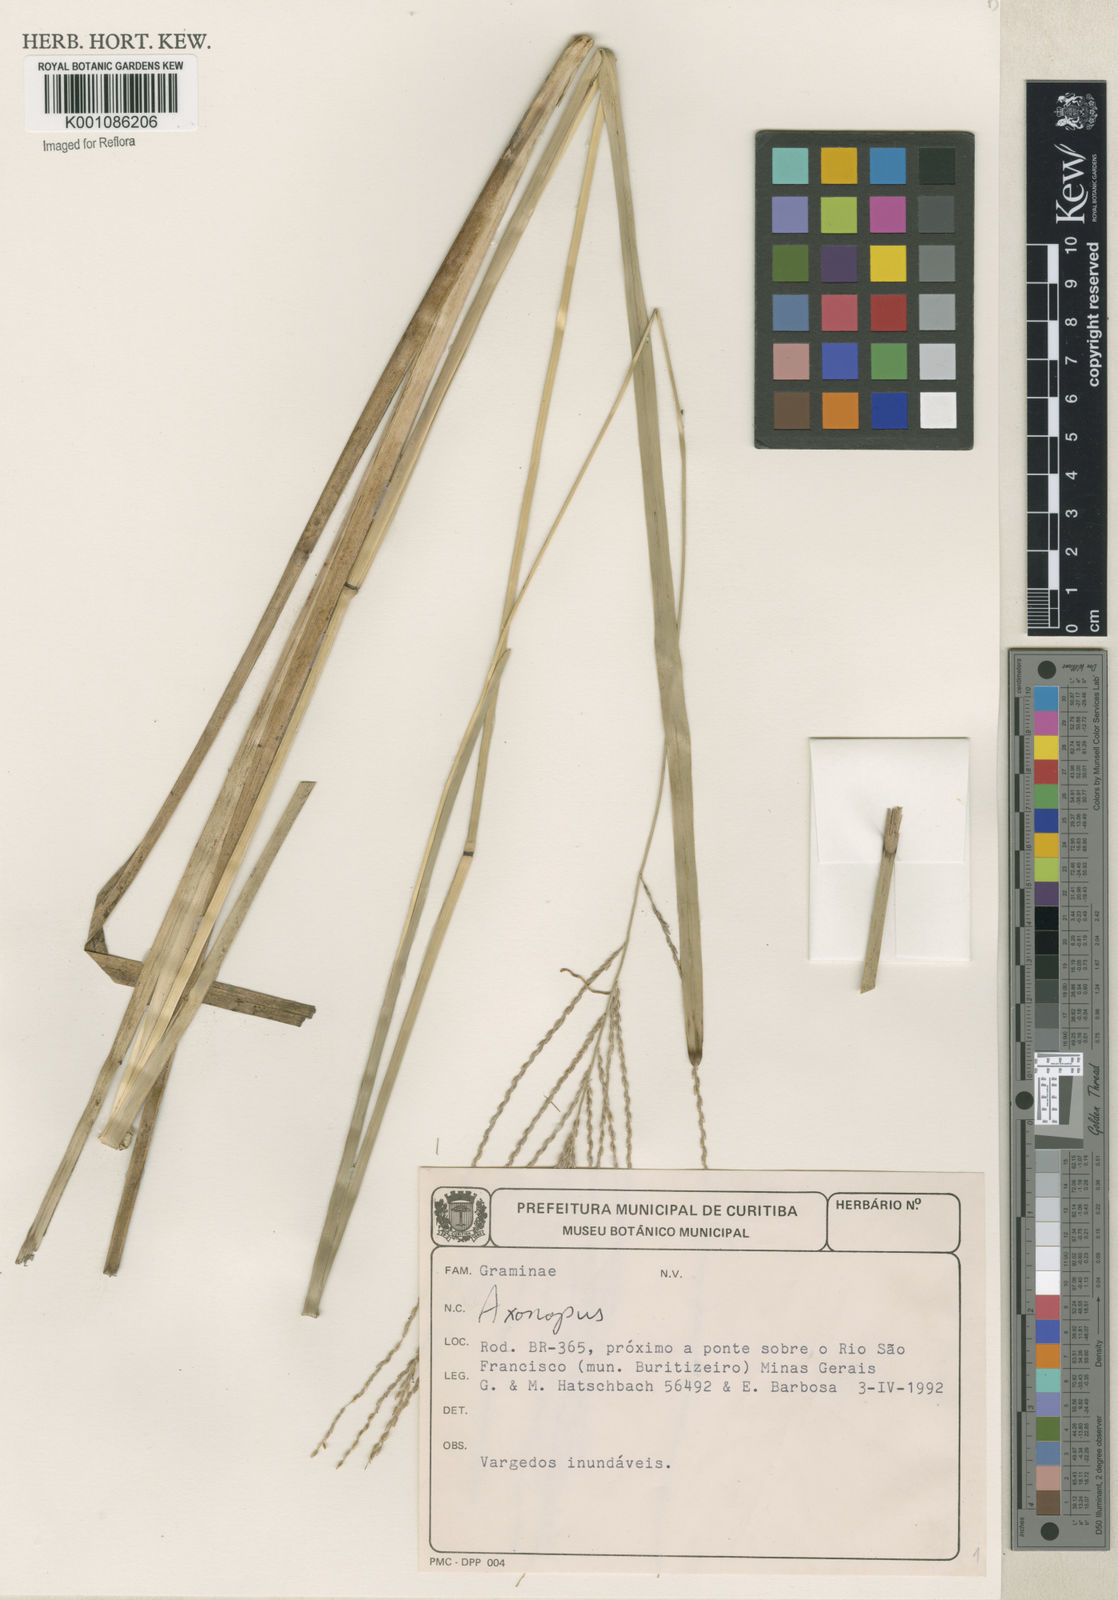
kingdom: Plantae
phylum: Tracheophyta
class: Liliopsida
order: Poales
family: Poaceae
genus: Axonopus
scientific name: Axonopus
